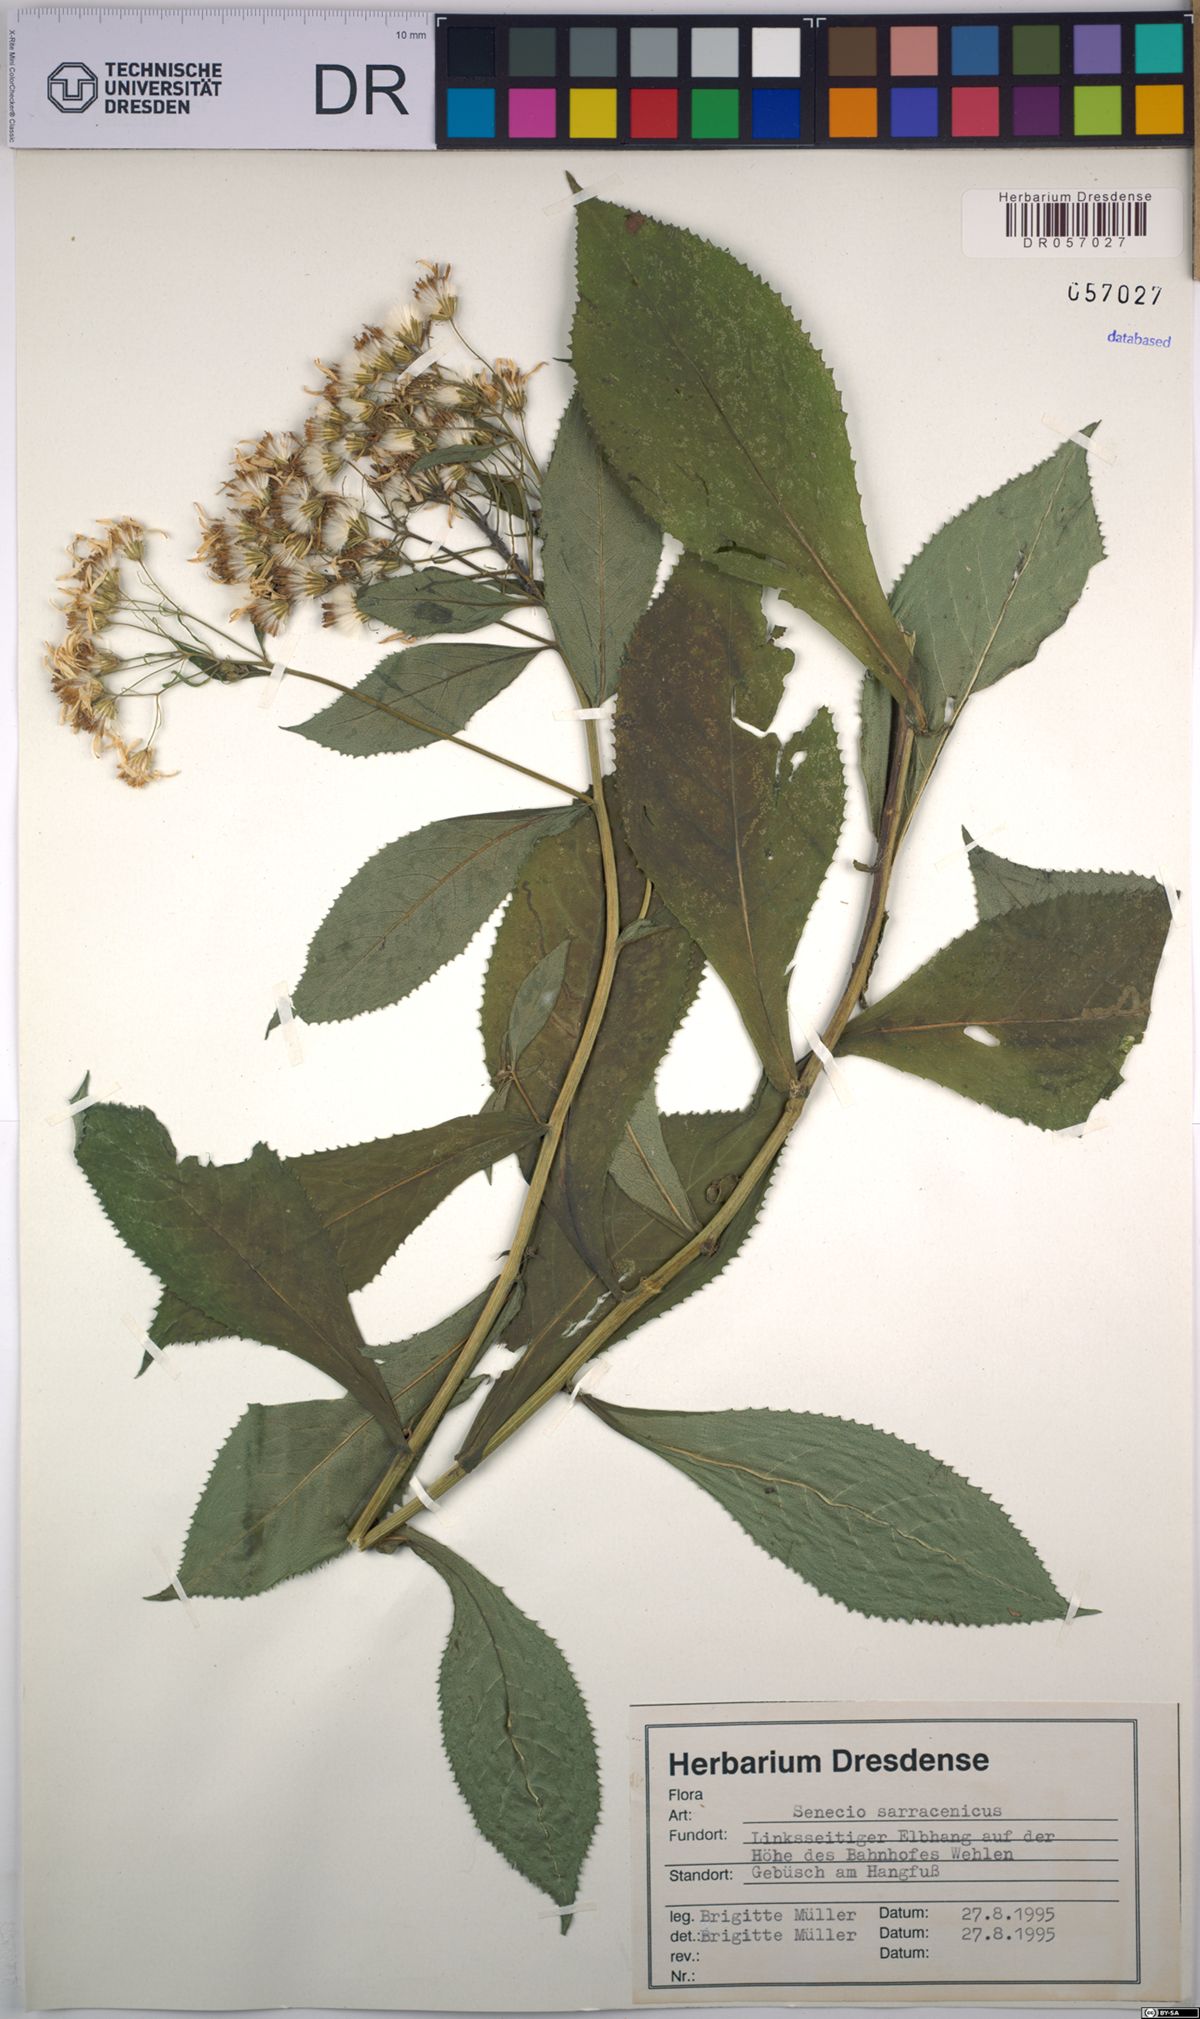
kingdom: Plantae
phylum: Tracheophyta
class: Magnoliopsida
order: Asterales
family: Asteraceae
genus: Senecio
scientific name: Senecio sarracenicus
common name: Broad-leaved ragwort
